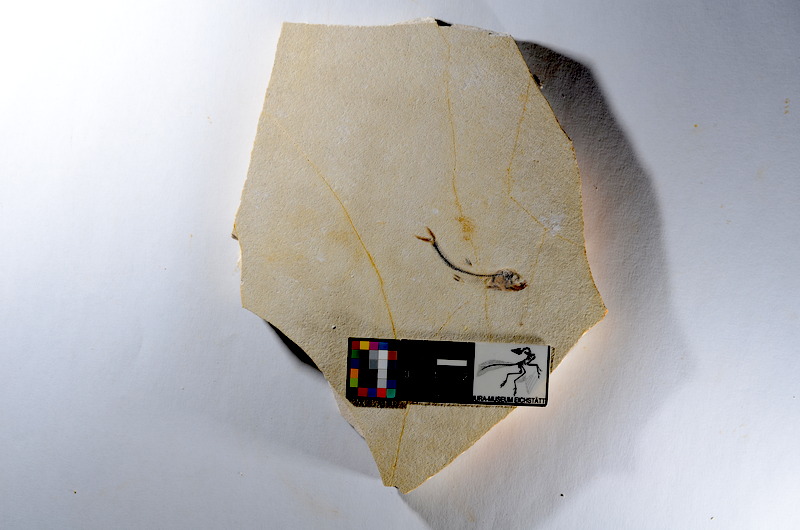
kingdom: Animalia
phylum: Chordata
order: Salmoniformes
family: Orthogonikleithridae
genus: Orthogonikleithrus
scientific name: Orthogonikleithrus hoelli
